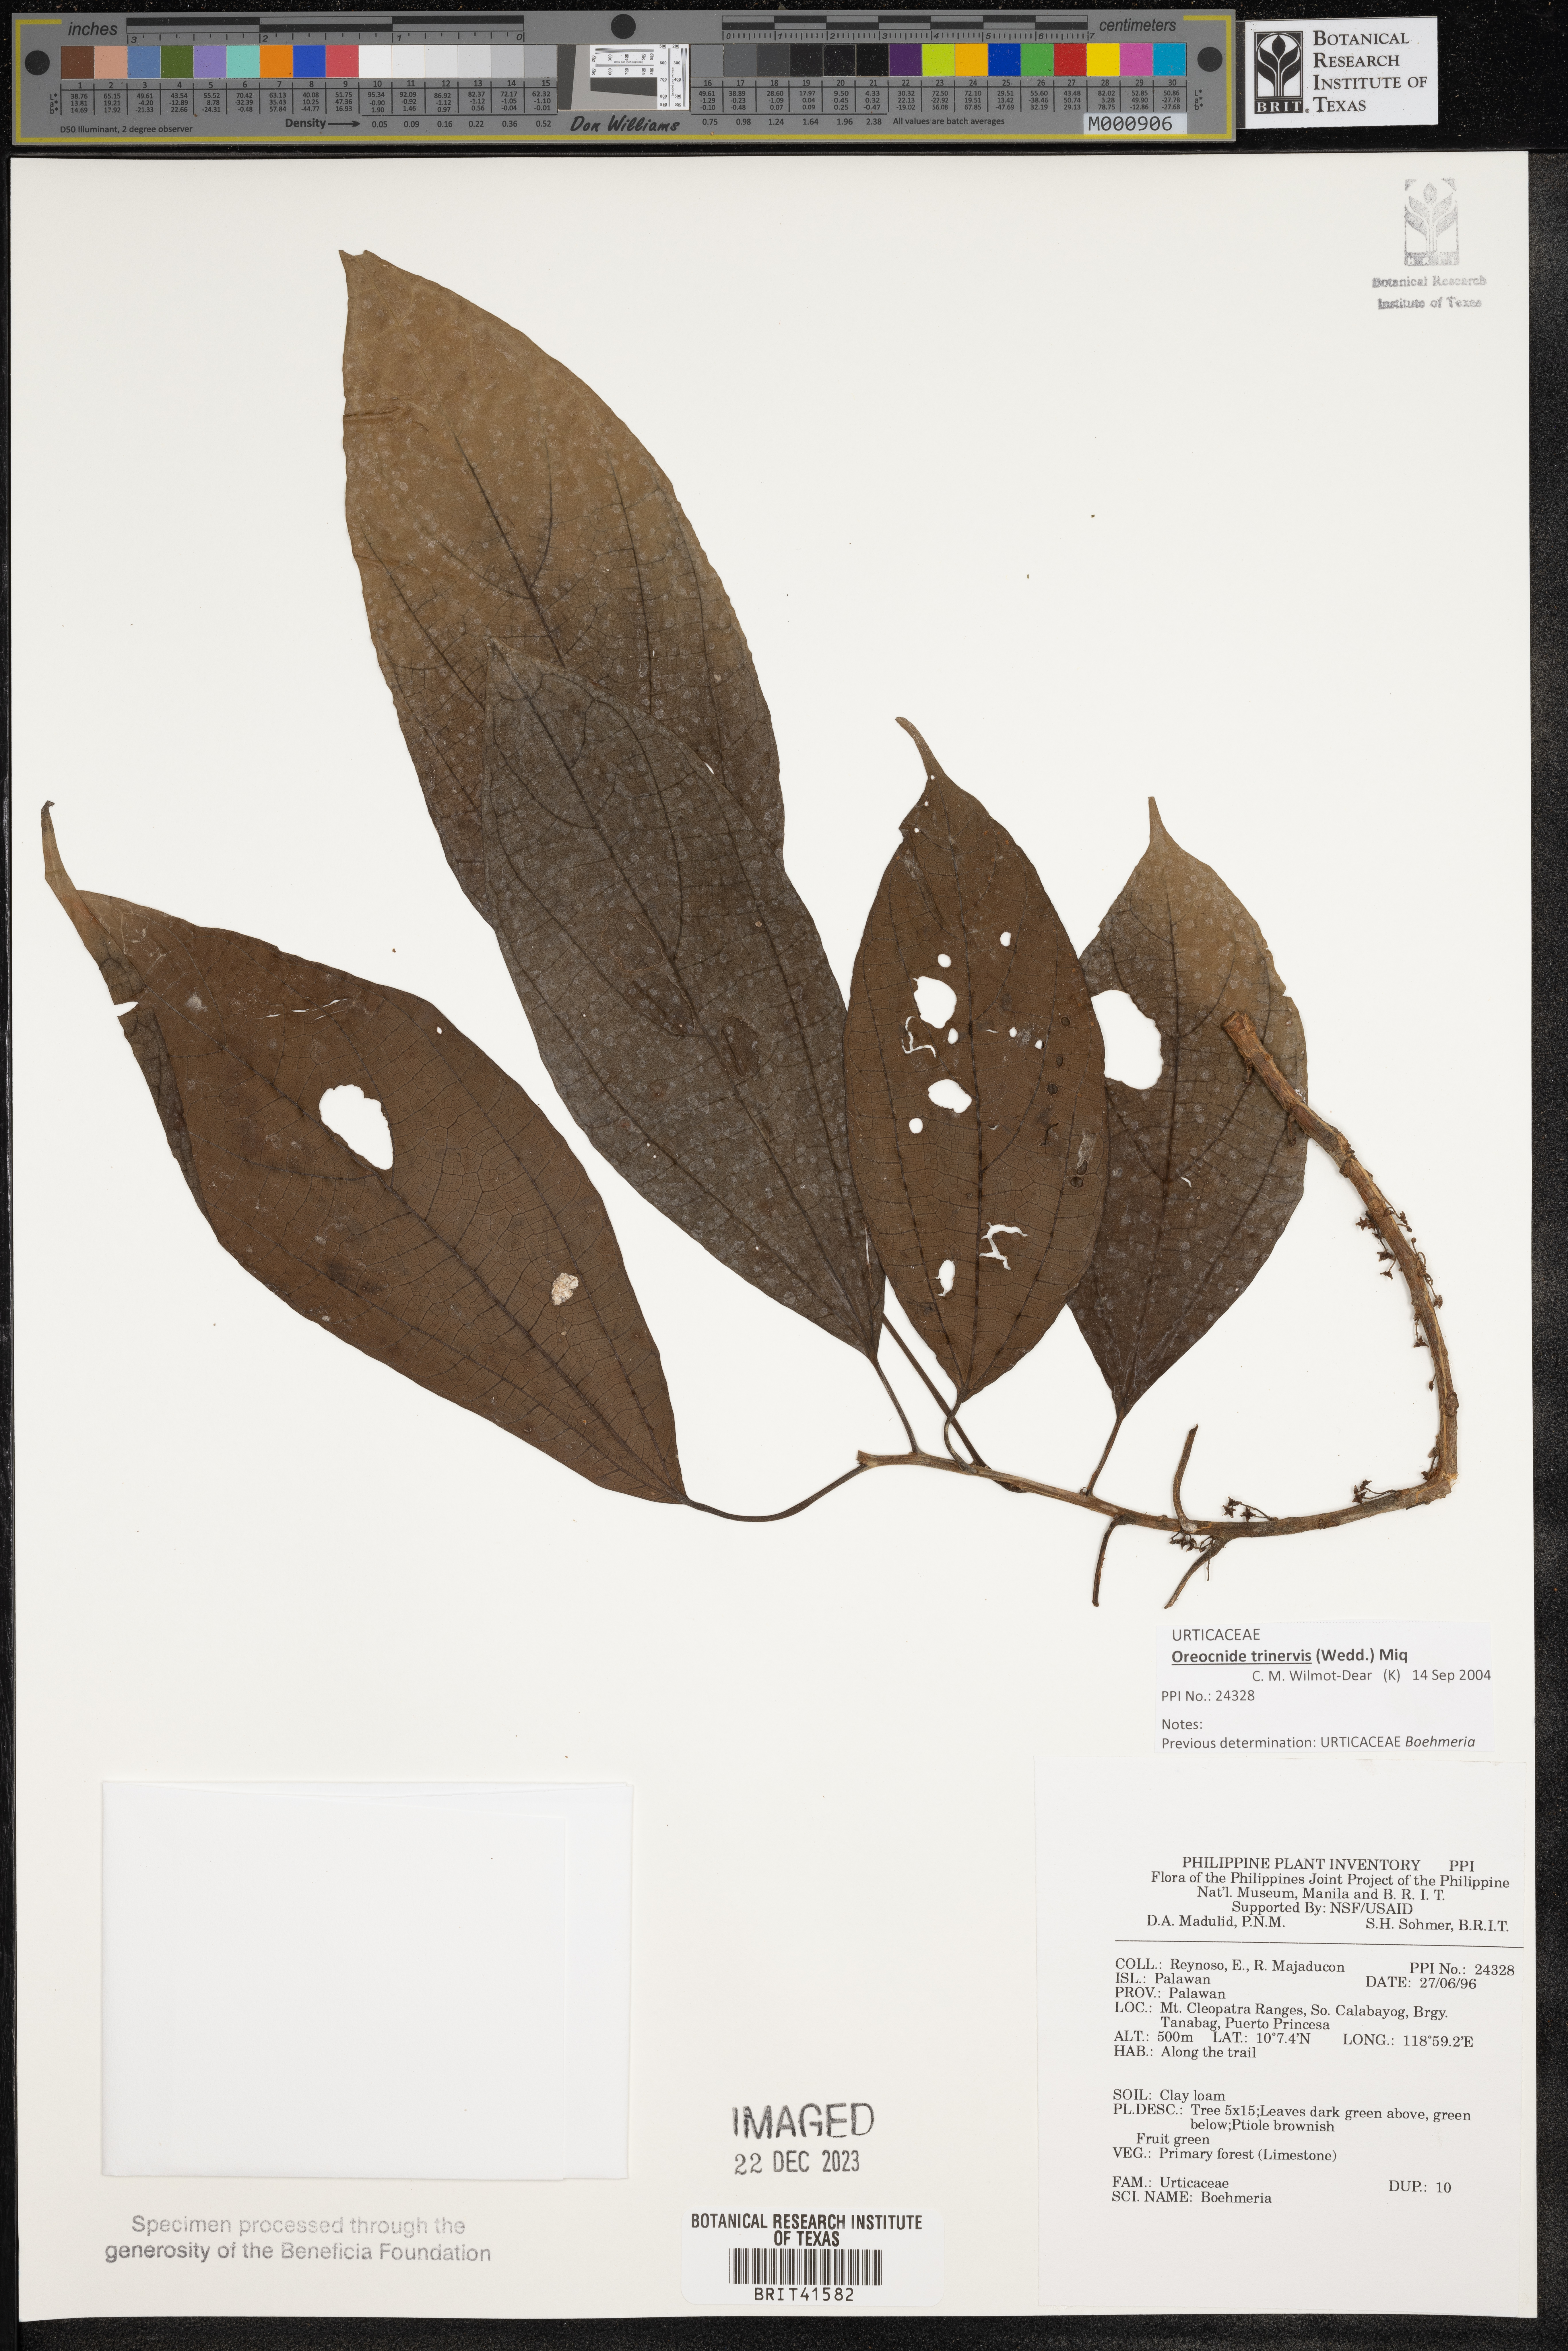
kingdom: Plantae
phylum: Tracheophyta
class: Magnoliopsida
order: Rosales
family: Urticaceae
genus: Boehmeria
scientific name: Boehmeria
